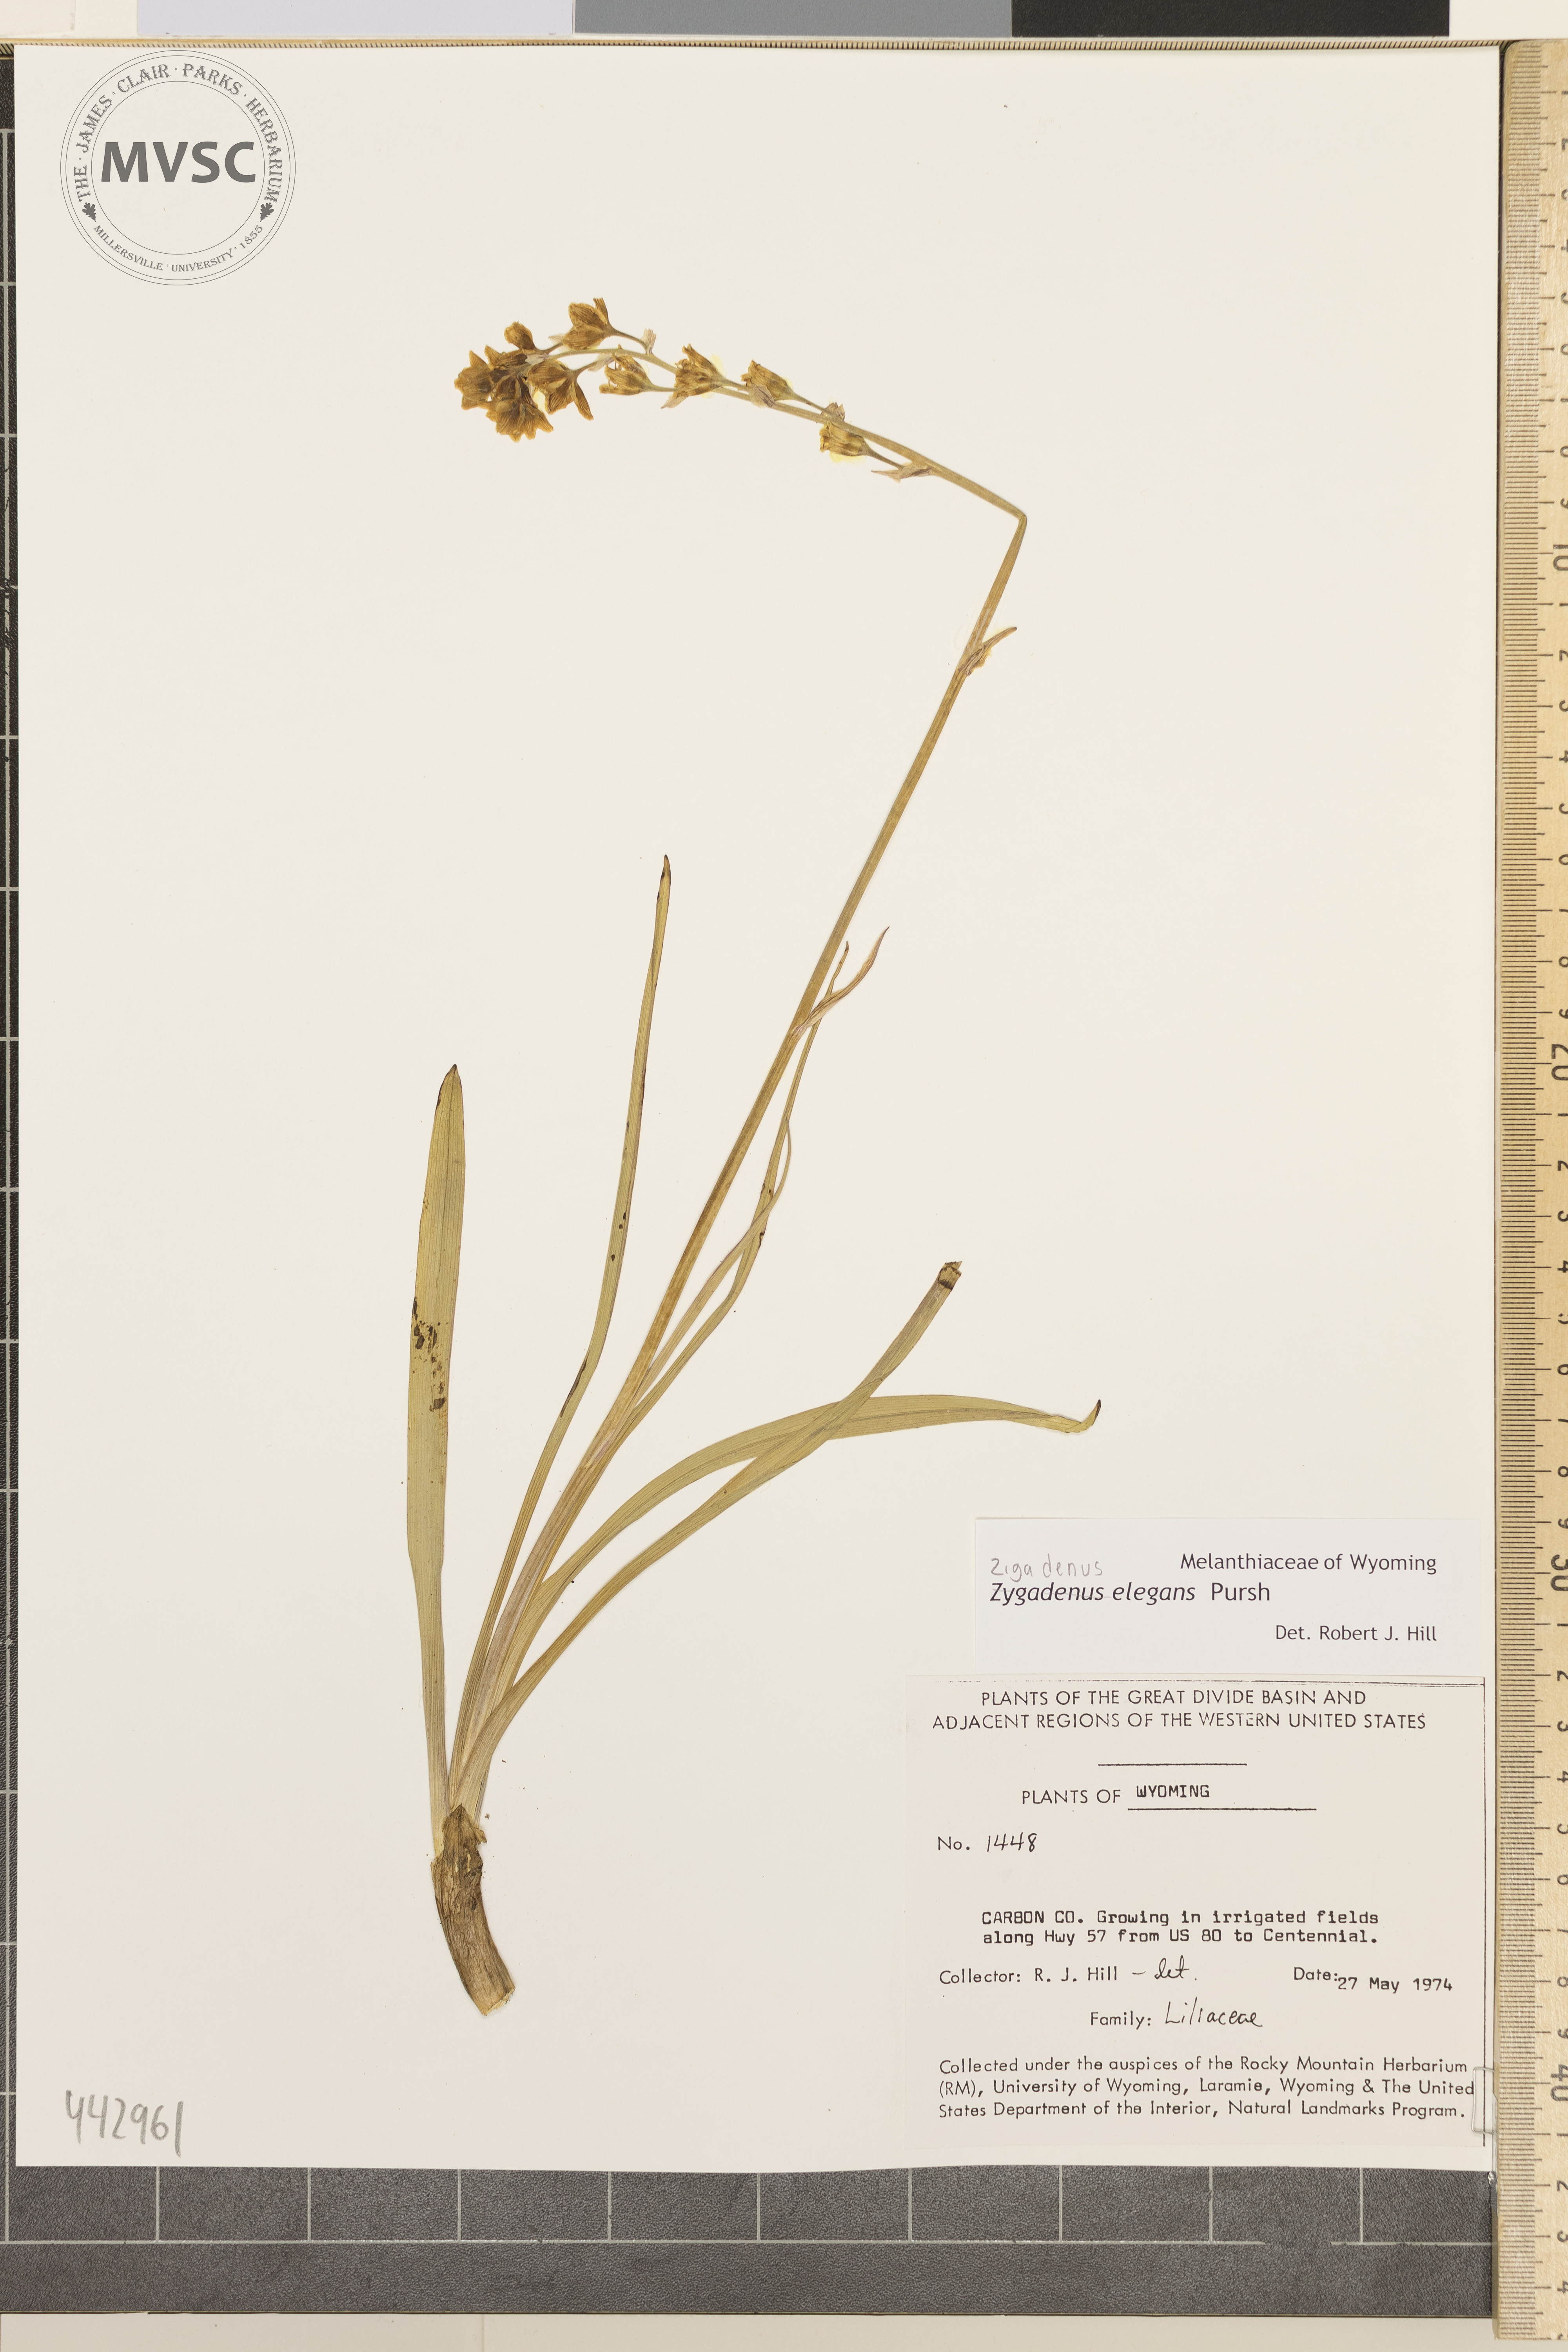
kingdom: Plantae
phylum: Tracheophyta
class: Liliopsida
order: Liliales
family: Melanthiaceae
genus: Anticlea
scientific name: Anticlea elegans
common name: Mountain death camas
